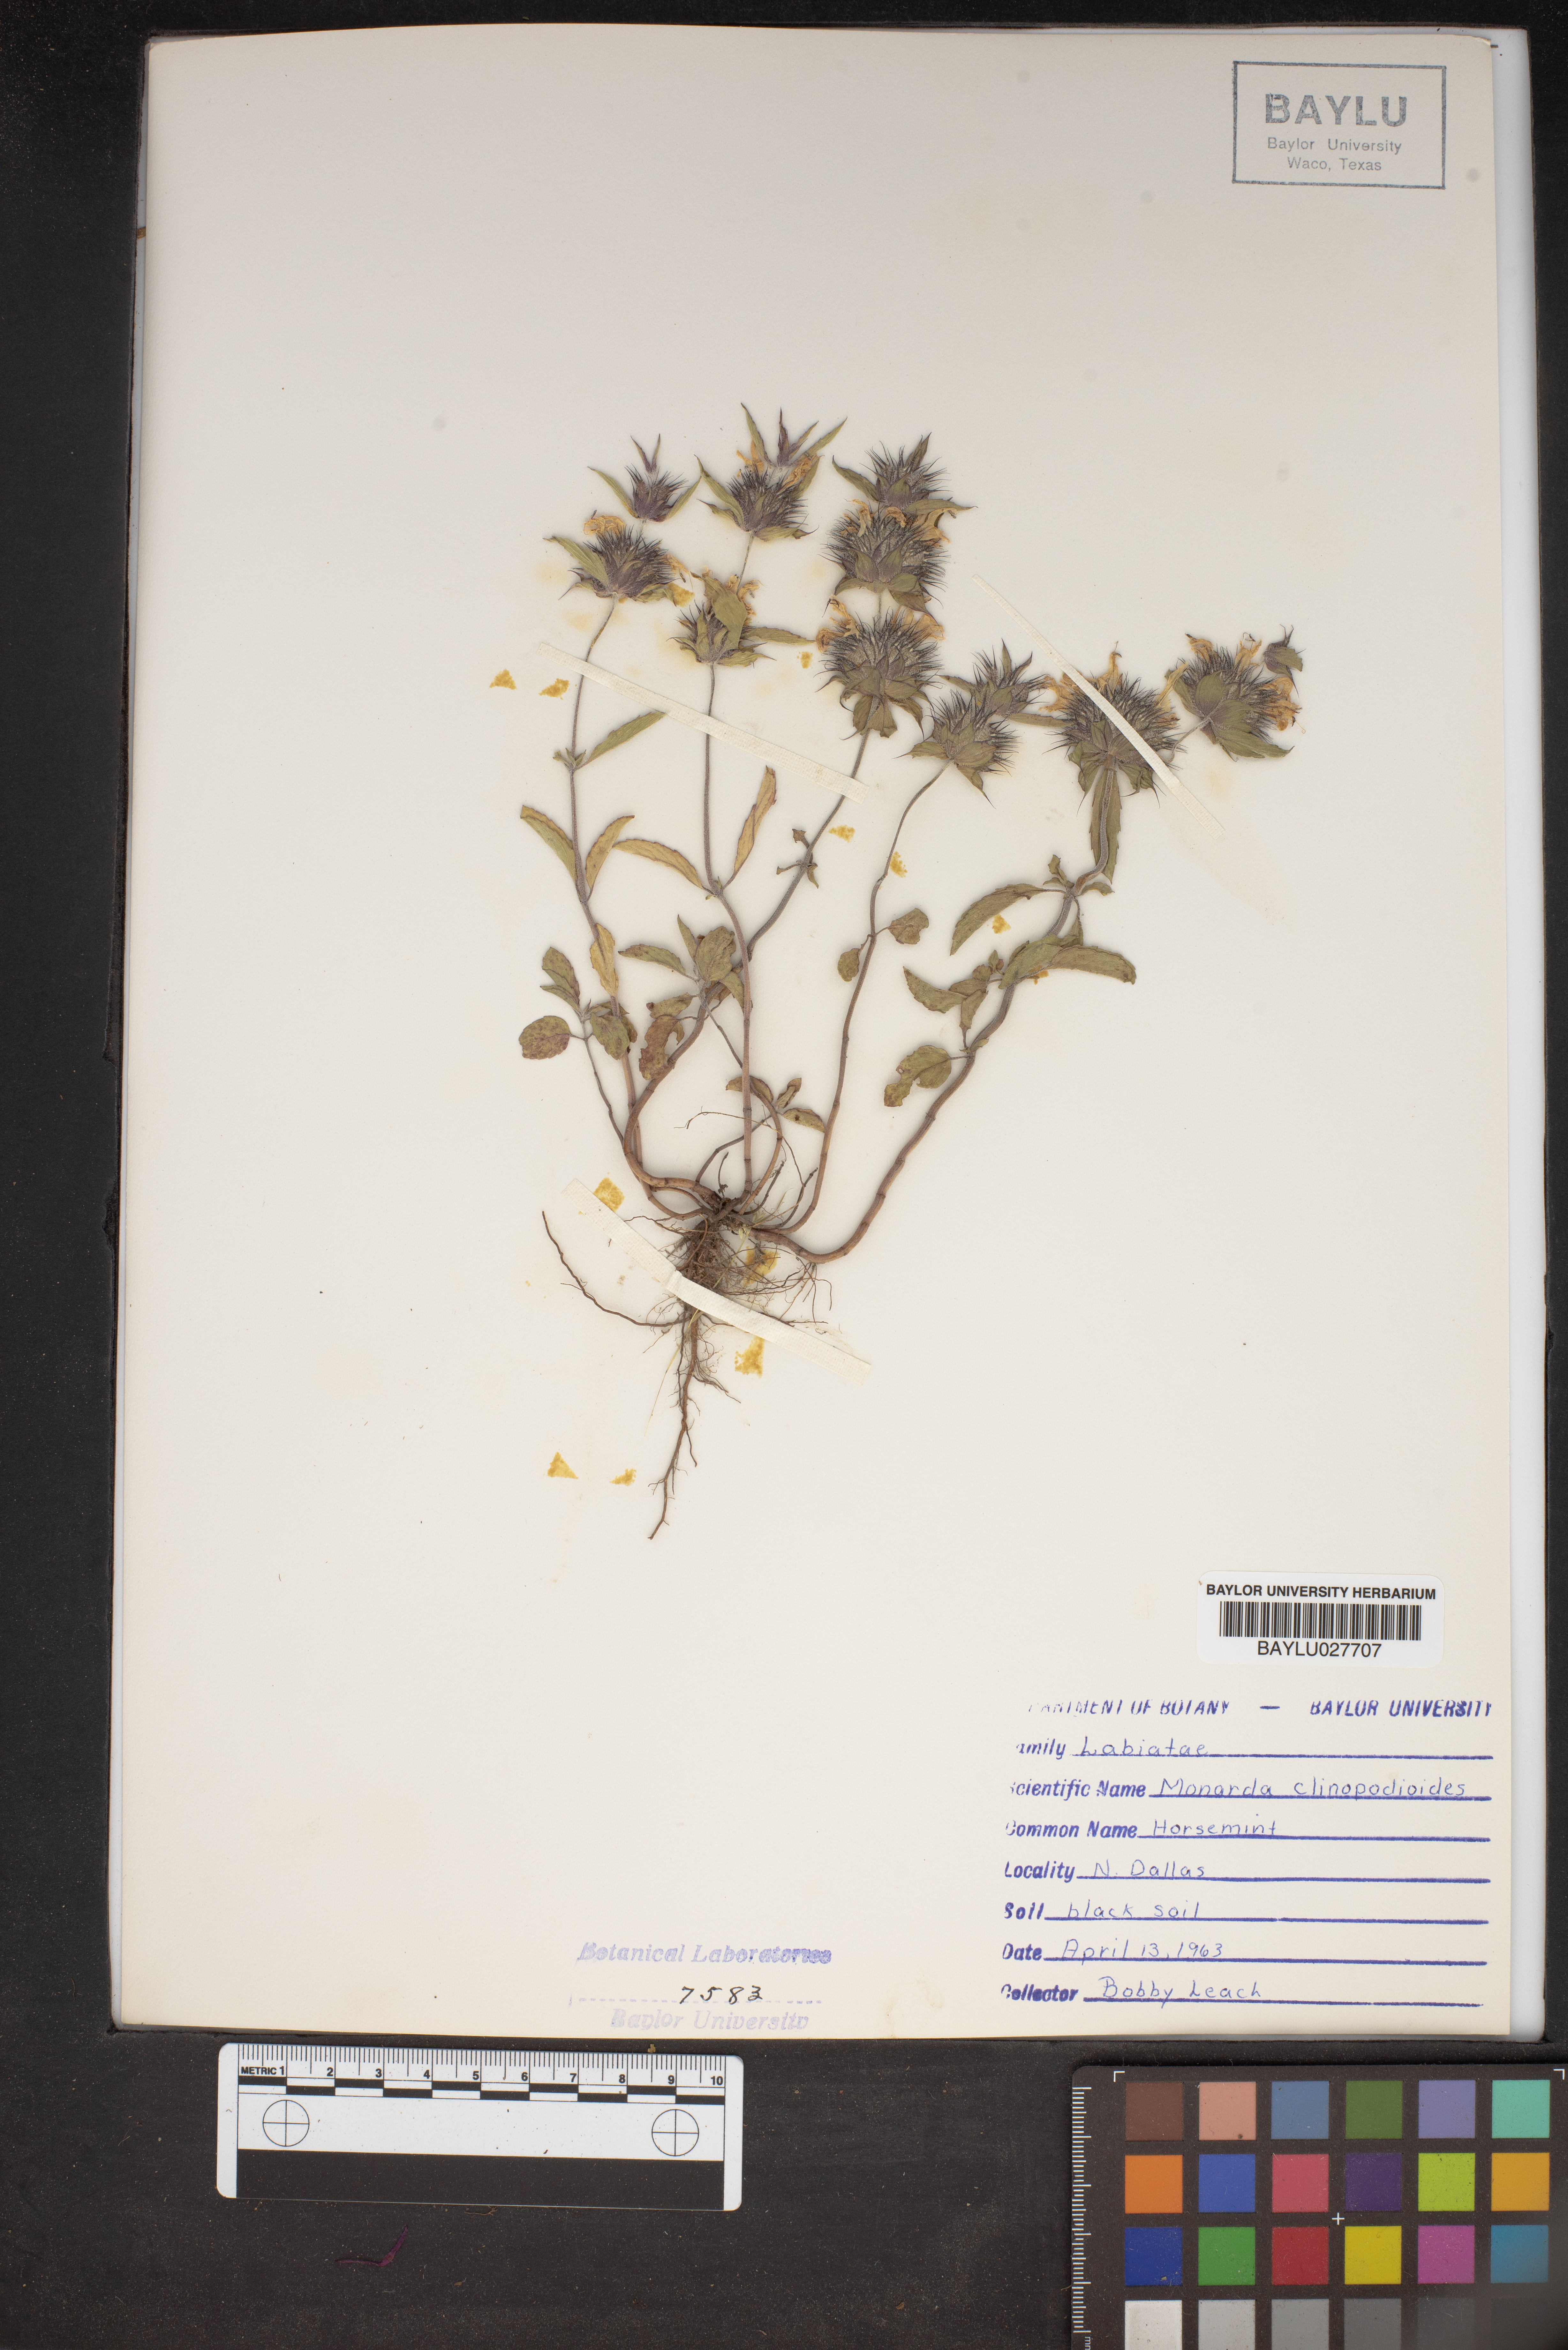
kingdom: Plantae
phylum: Tracheophyta
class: Magnoliopsida
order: Lamiales
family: Lamiaceae
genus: Monarda
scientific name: Monarda clinopodioides
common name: Basil beebalm
